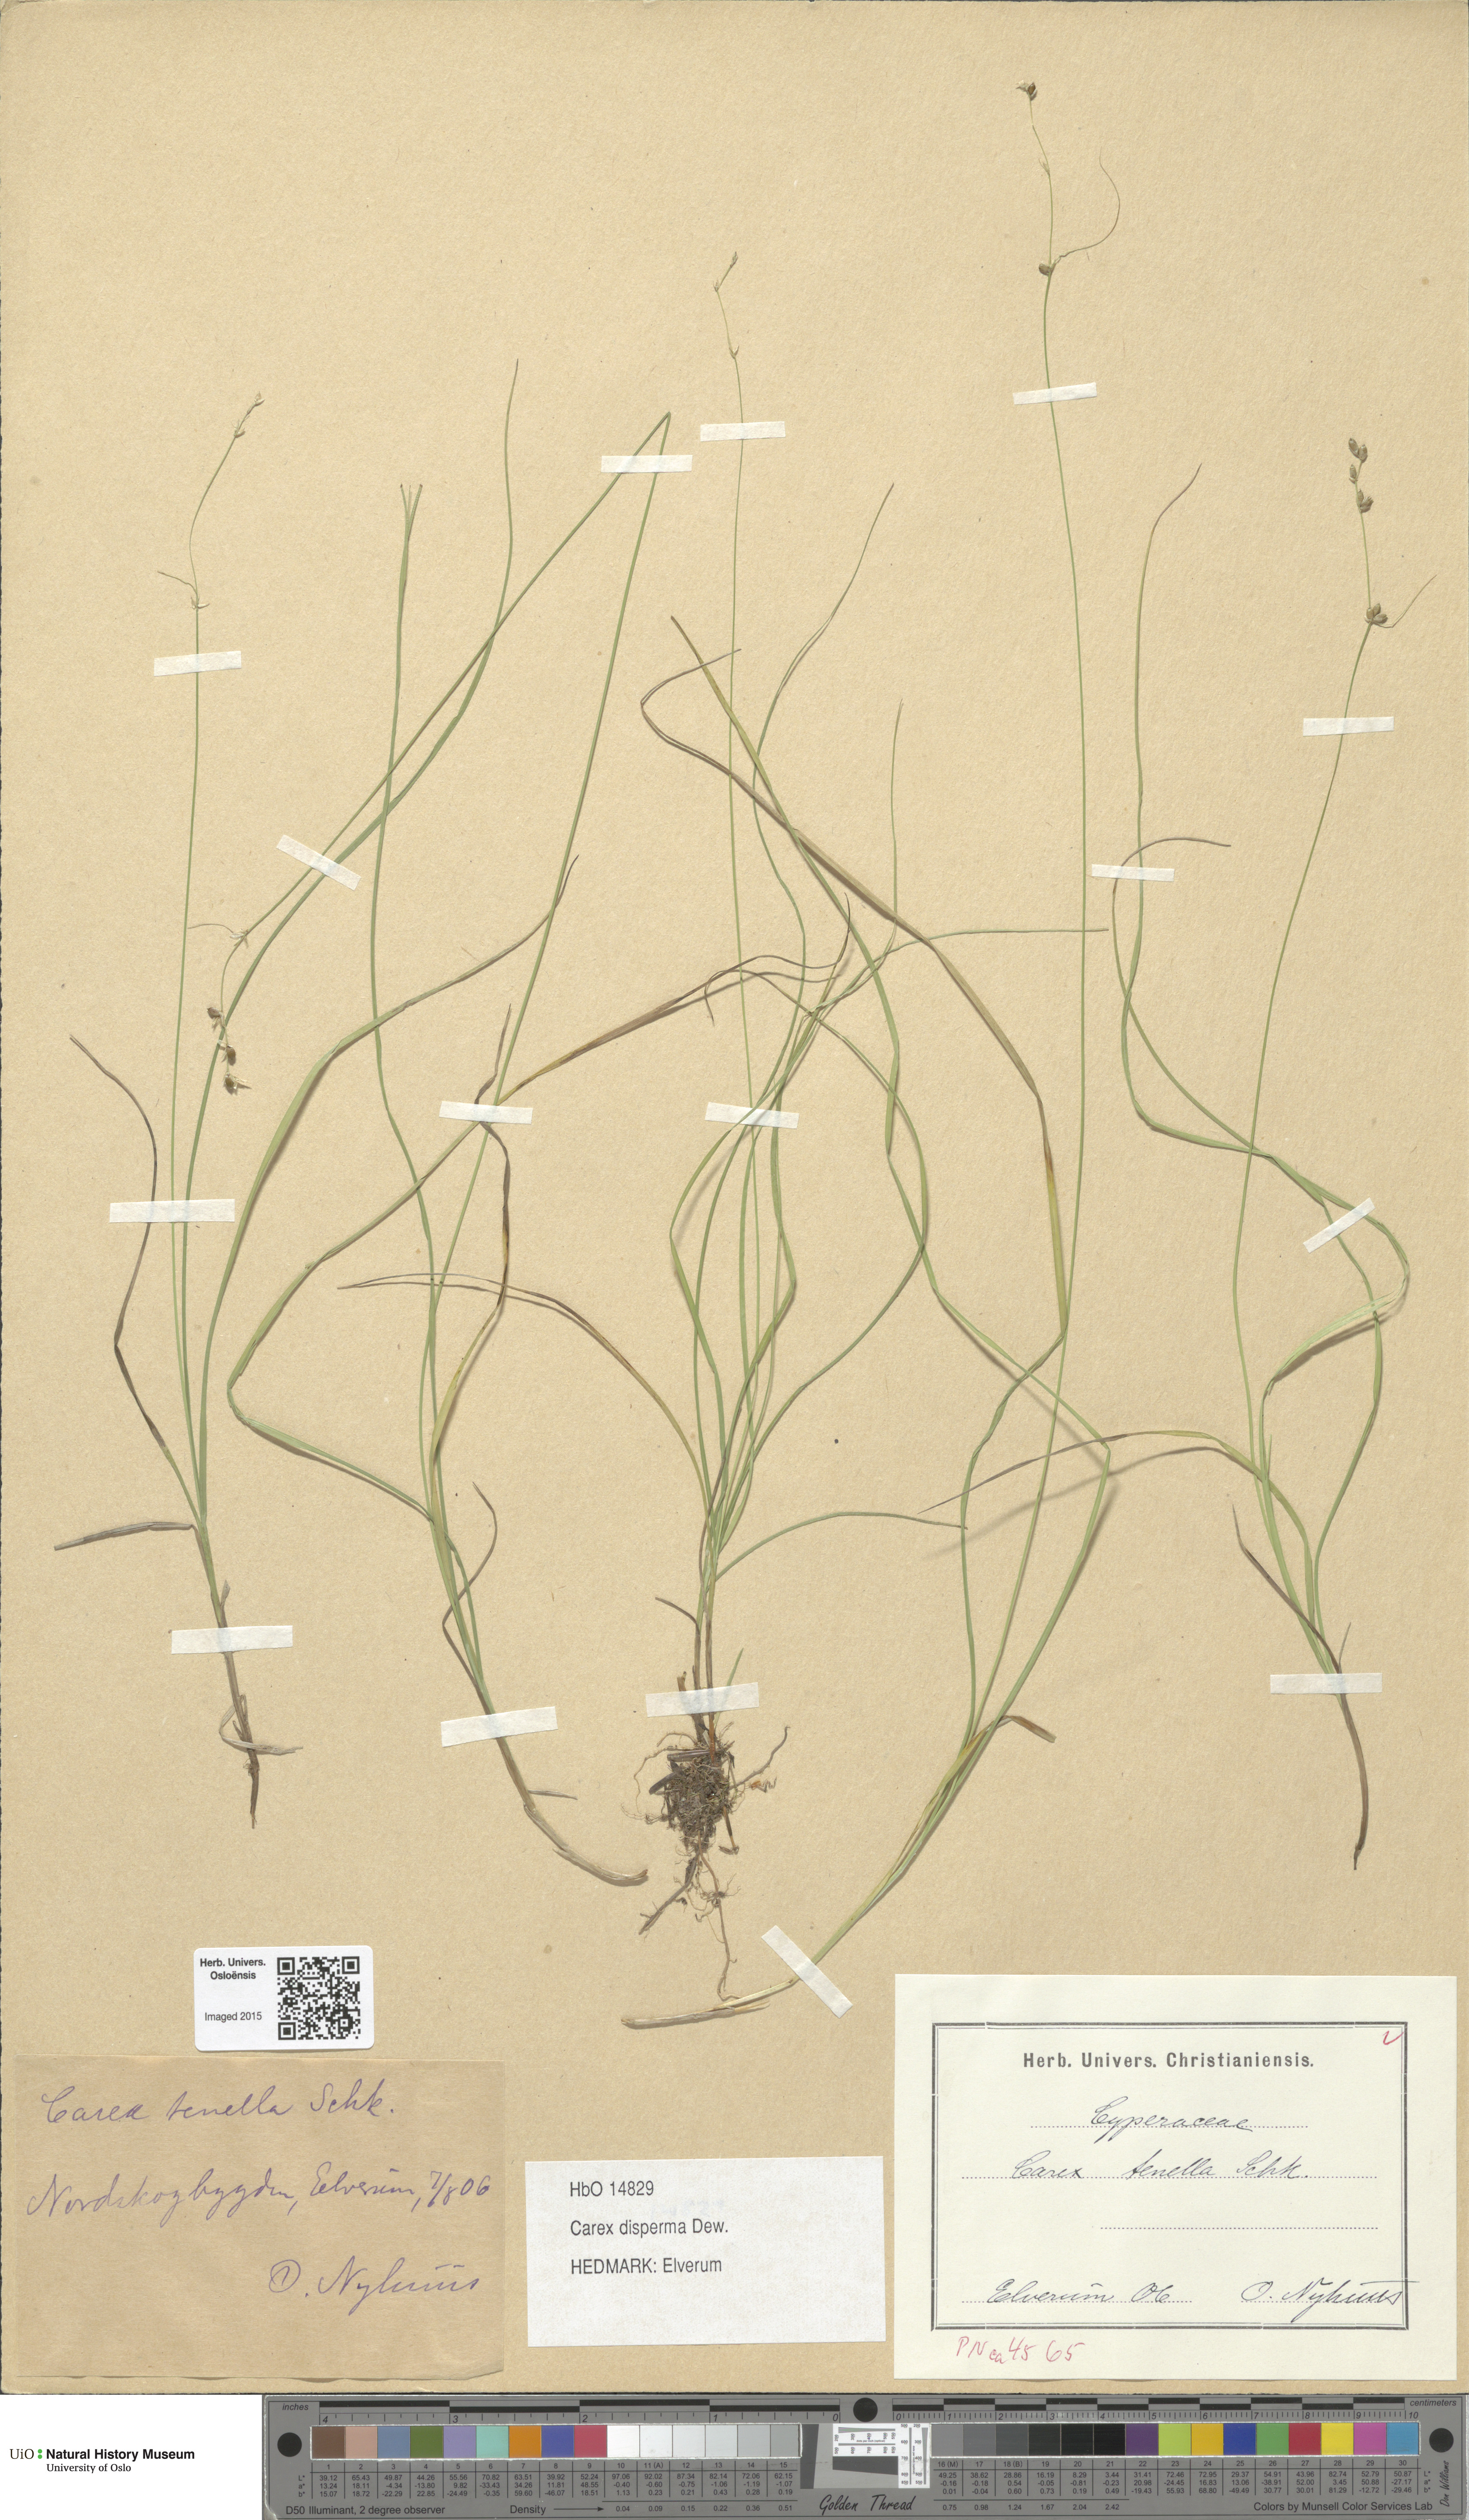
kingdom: Plantae
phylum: Tracheophyta
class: Liliopsida
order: Poales
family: Cyperaceae
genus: Carex
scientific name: Carex disperma
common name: Short-leaved sedge
